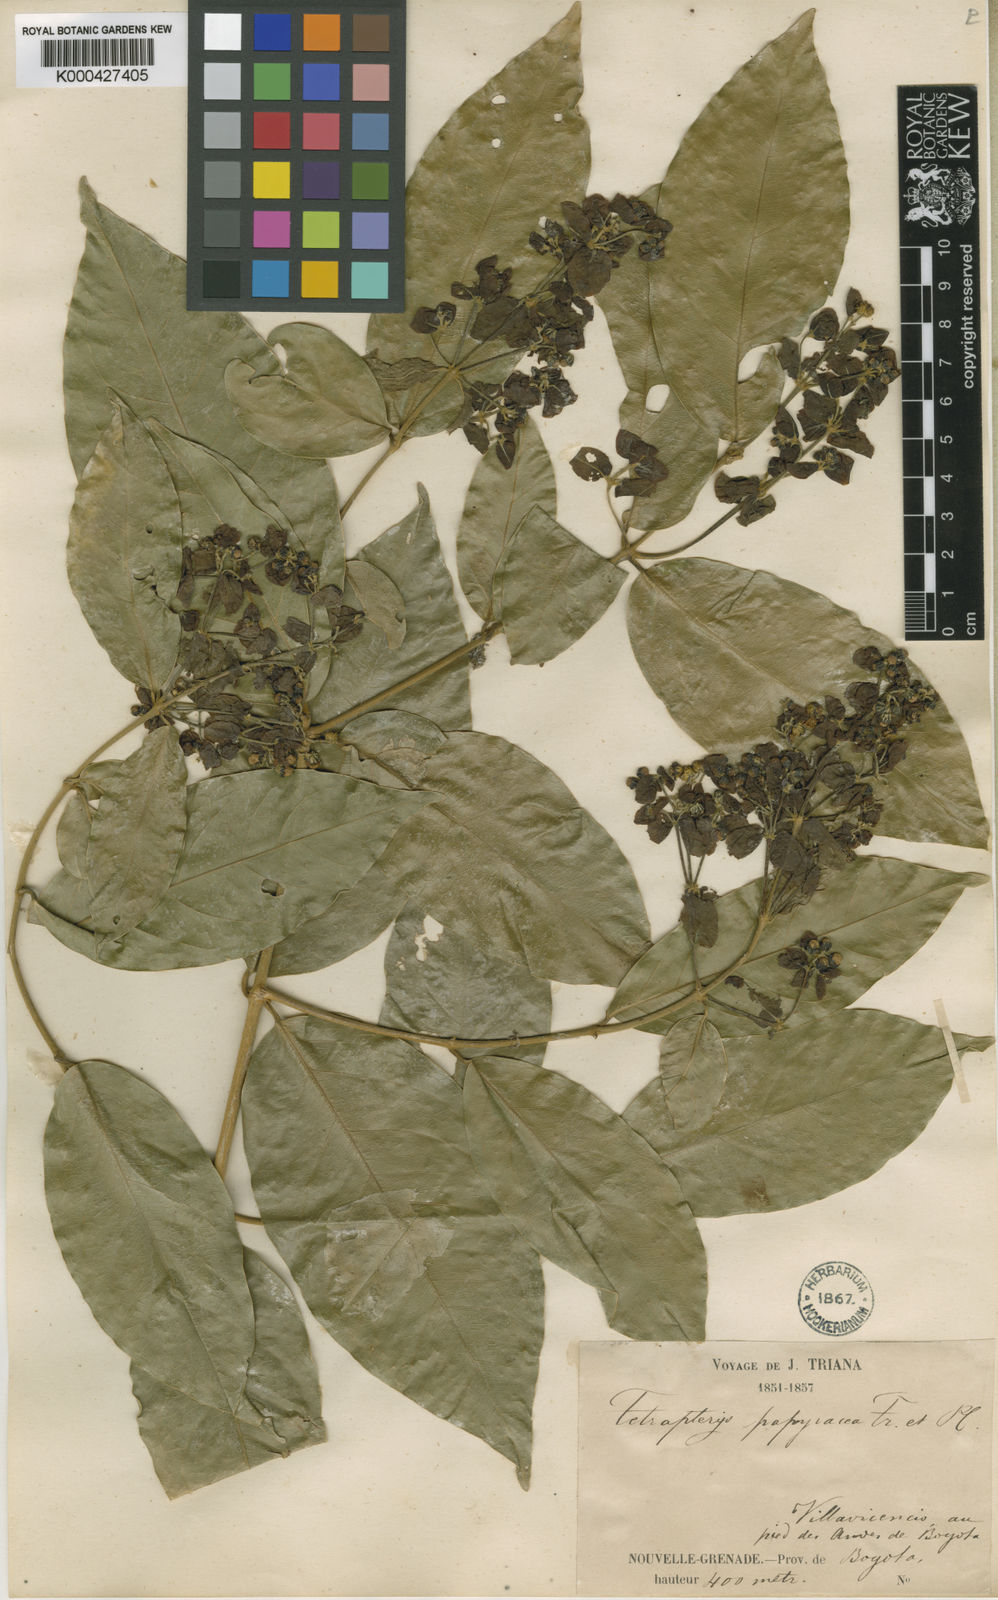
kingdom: Plantae
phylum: Tracheophyta
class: Magnoliopsida
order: Malpighiales
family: Malpighiaceae
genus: Tetrapterys
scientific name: Tetrapterys discolor
